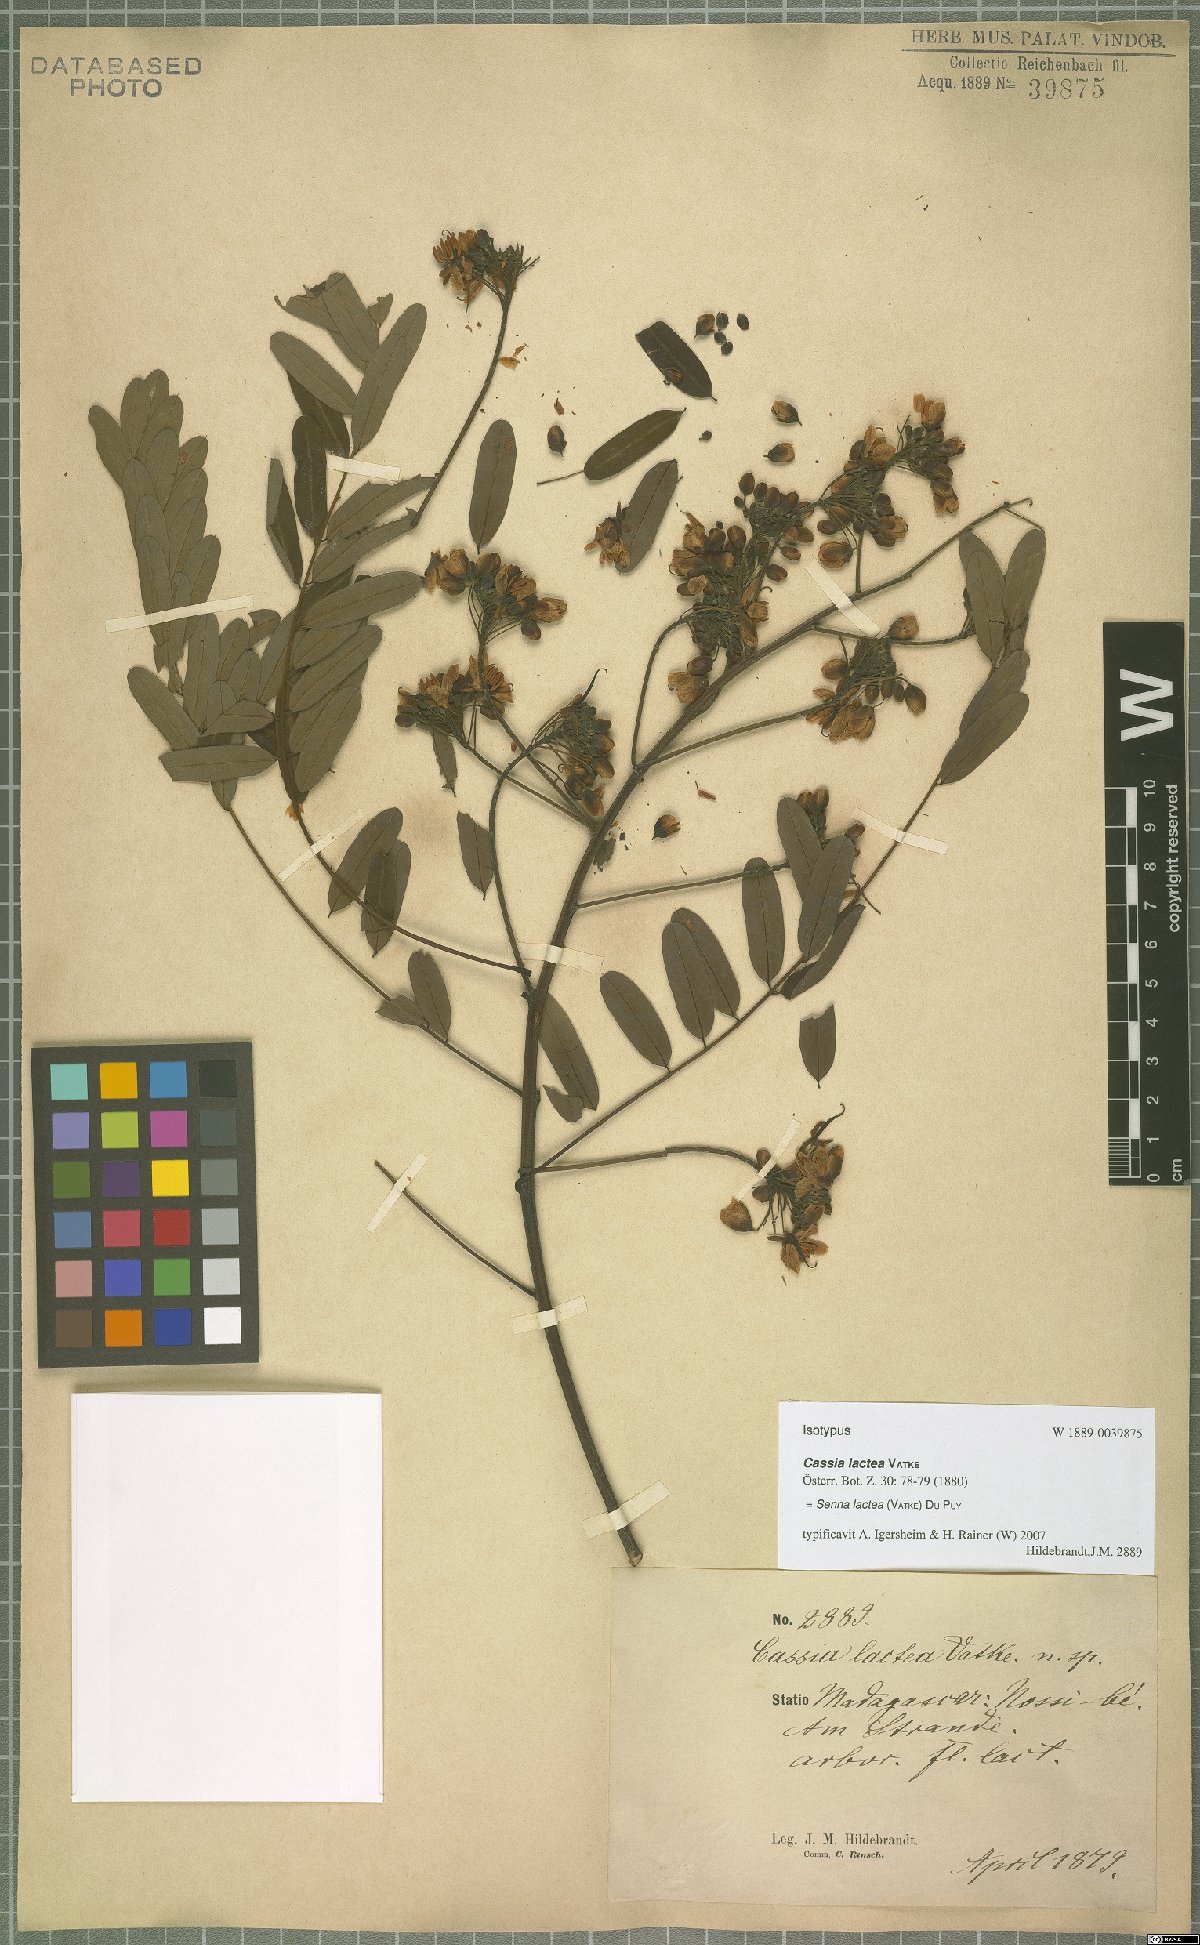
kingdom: Plantae
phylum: Tracheophyta
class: Magnoliopsida
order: Fabales
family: Fabaceae
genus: Senna
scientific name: Senna lactea
